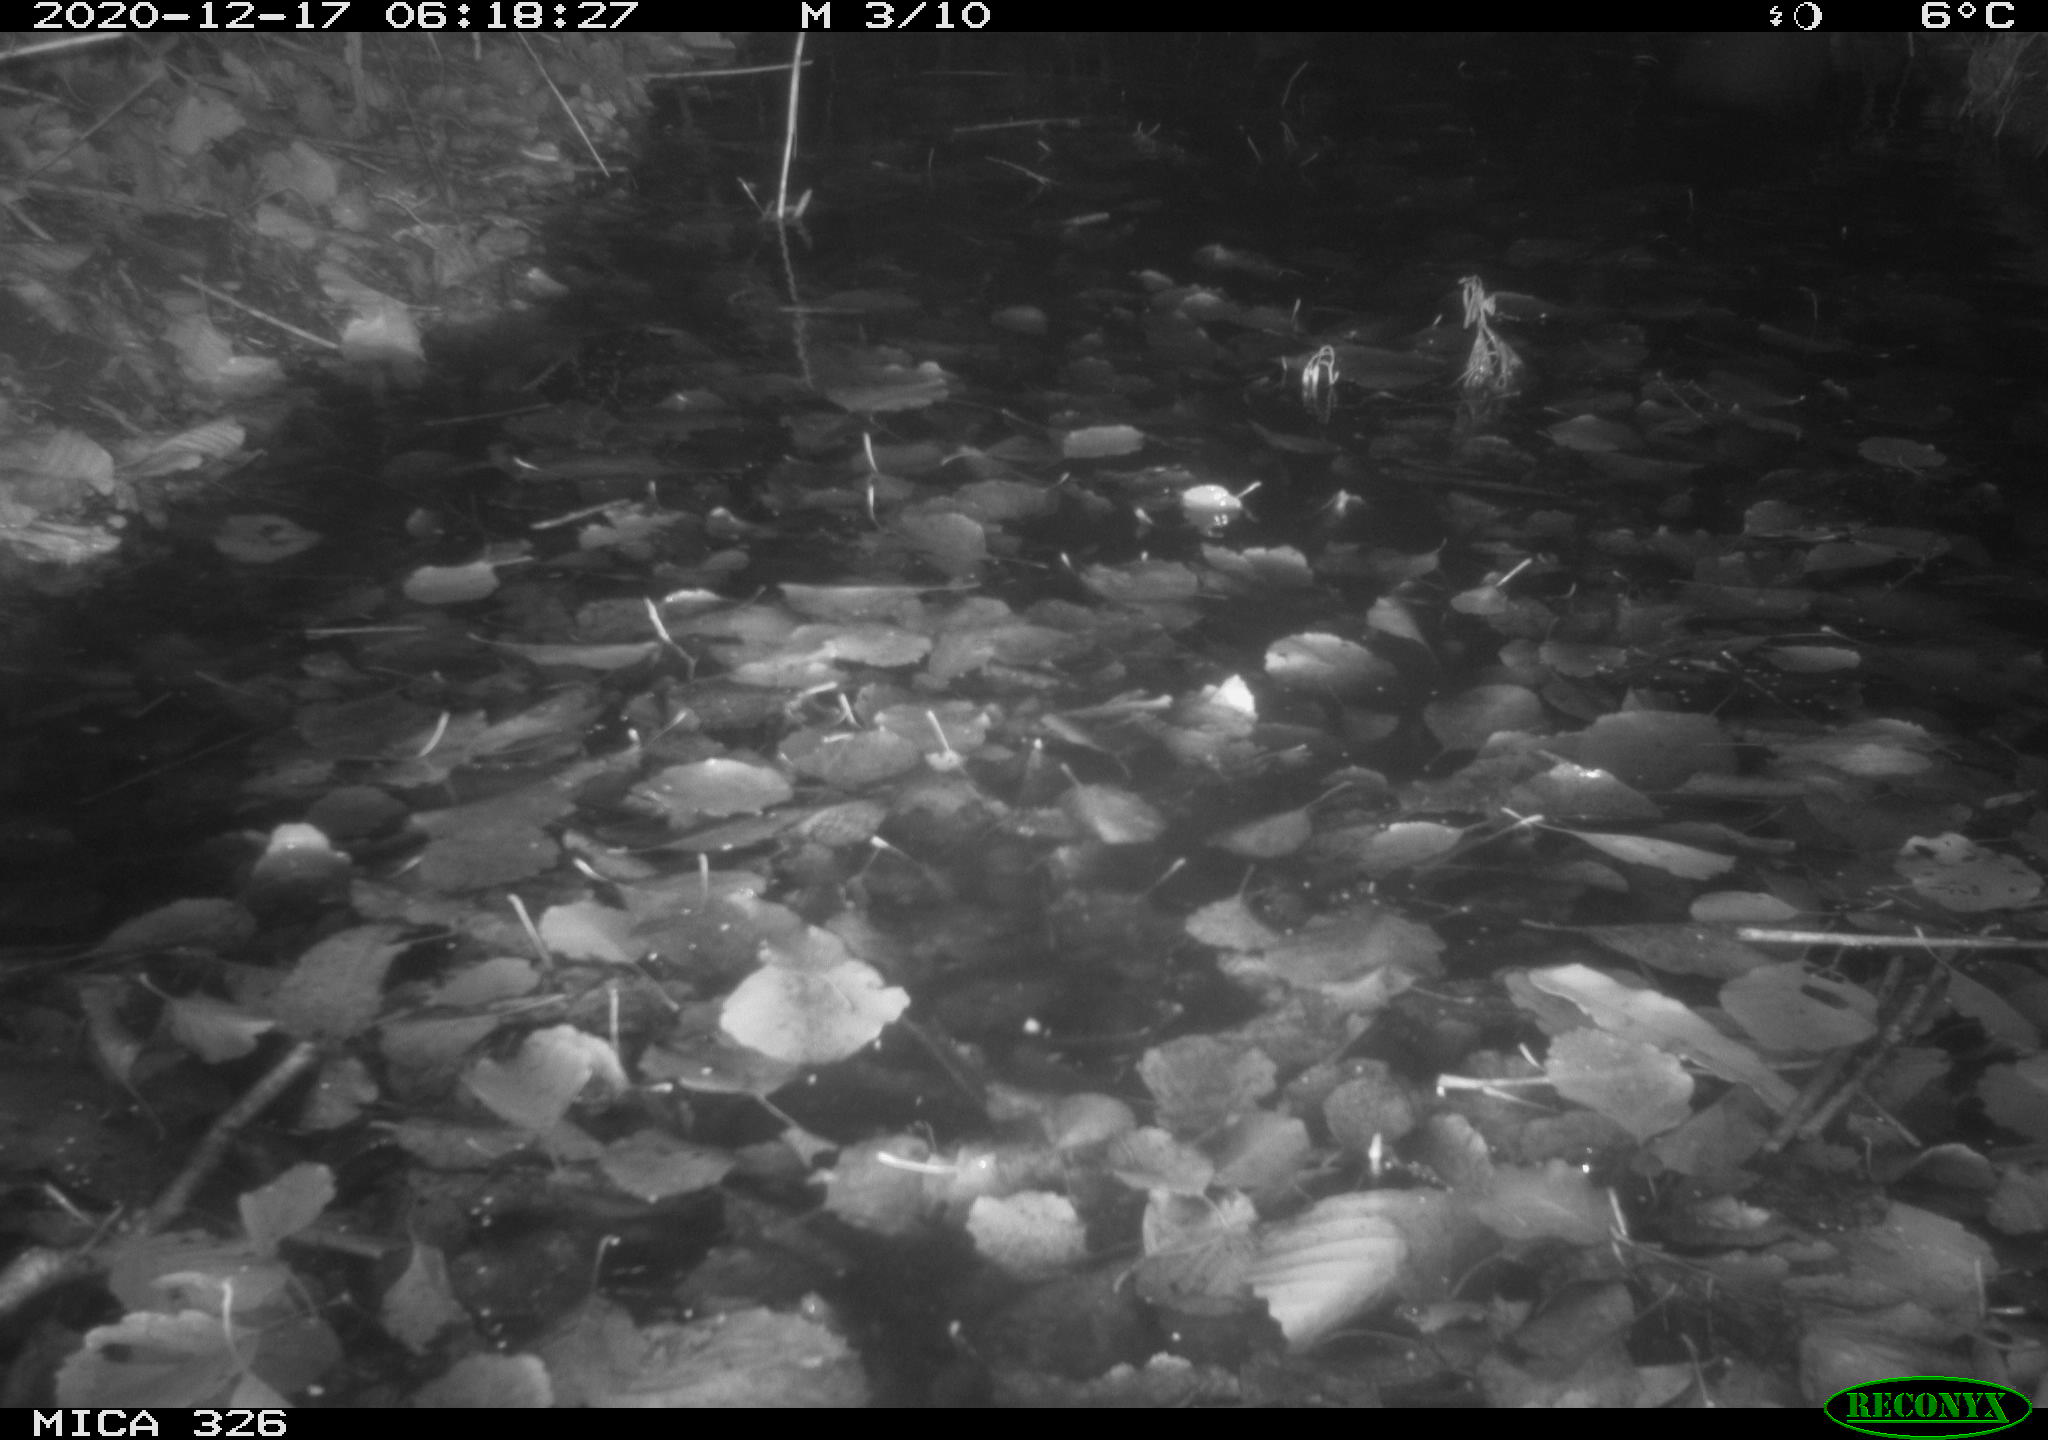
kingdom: Animalia
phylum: Chordata
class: Mammalia
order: Carnivora
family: Mustelidae
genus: Lutra
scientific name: Lutra lutra
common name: European otter
